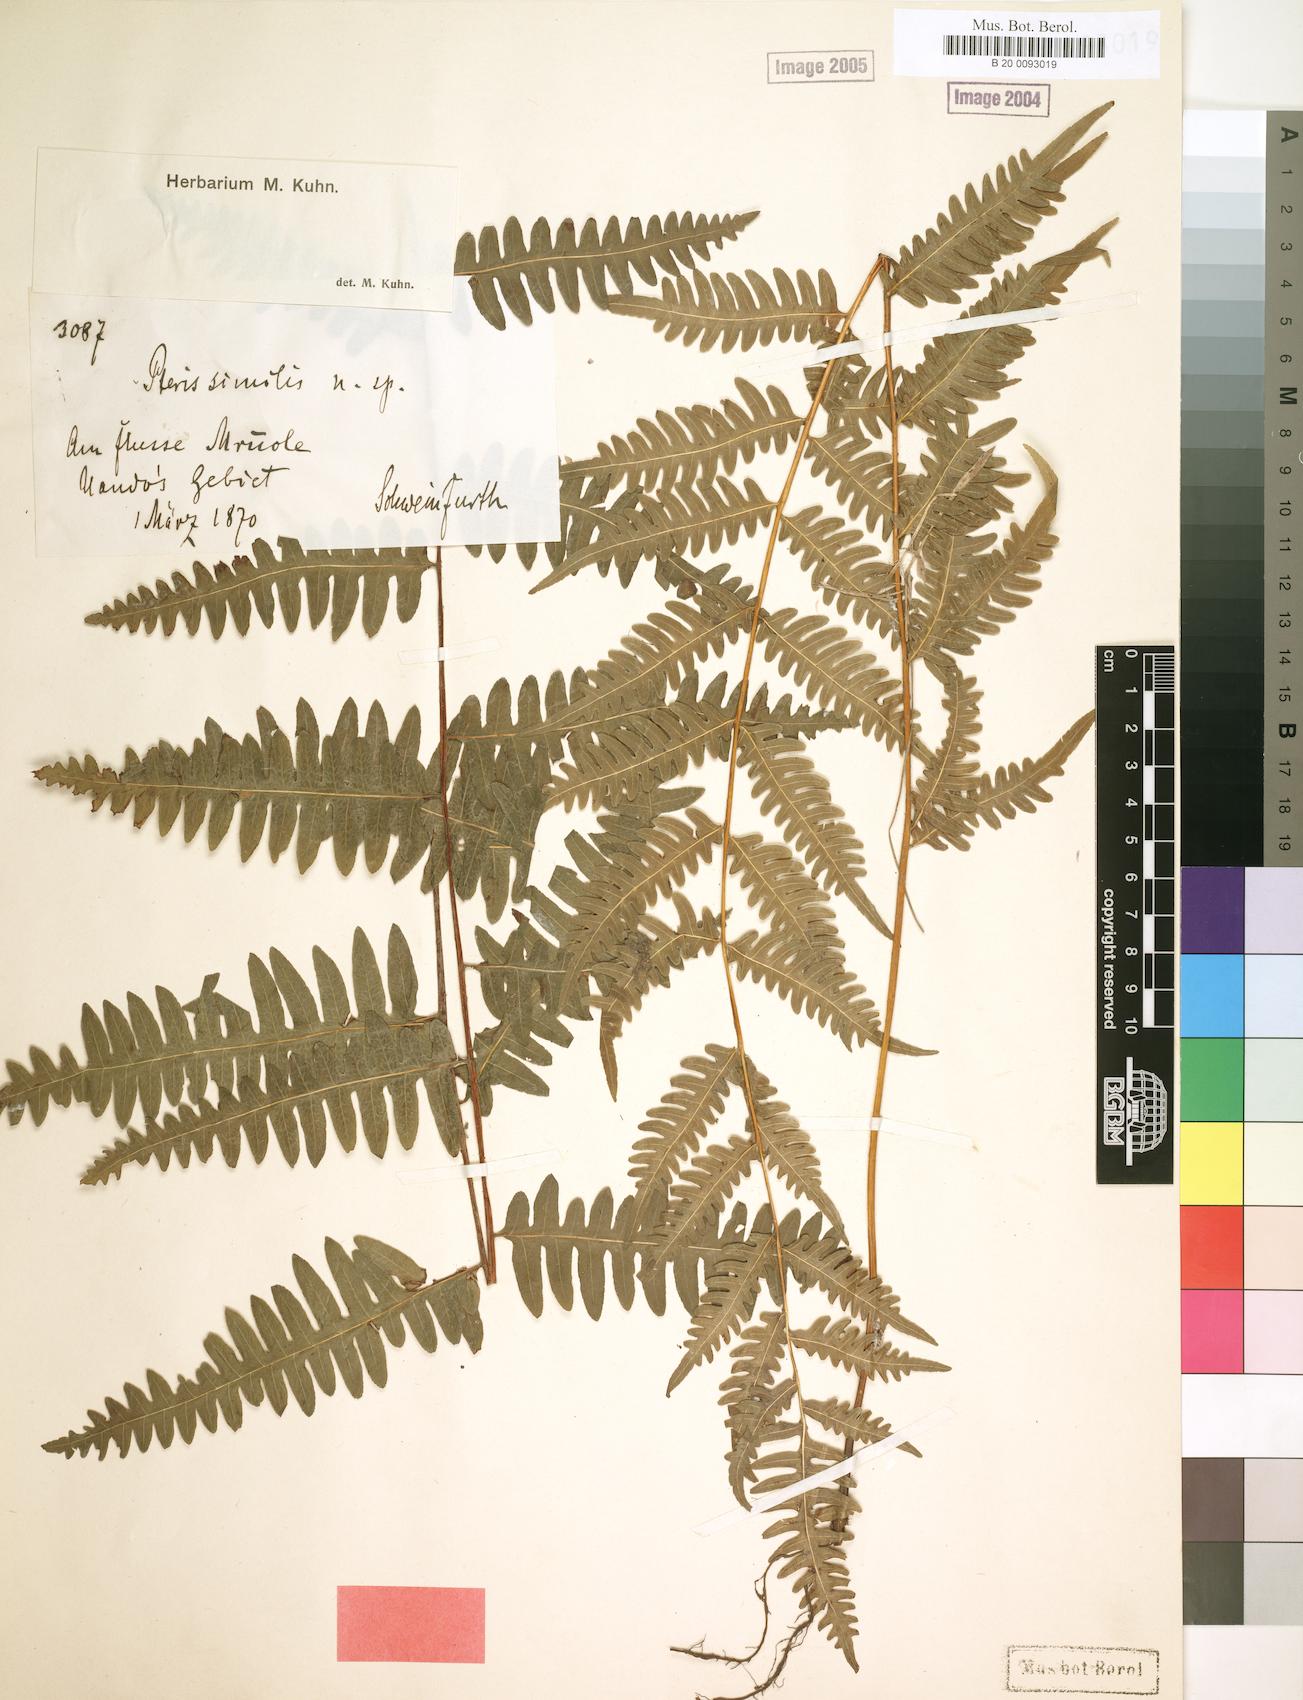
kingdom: Plantae
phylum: Tracheophyta
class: Polypodiopsida
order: Polypodiales
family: Pteridaceae
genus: Pteris
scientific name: Pteris similis
